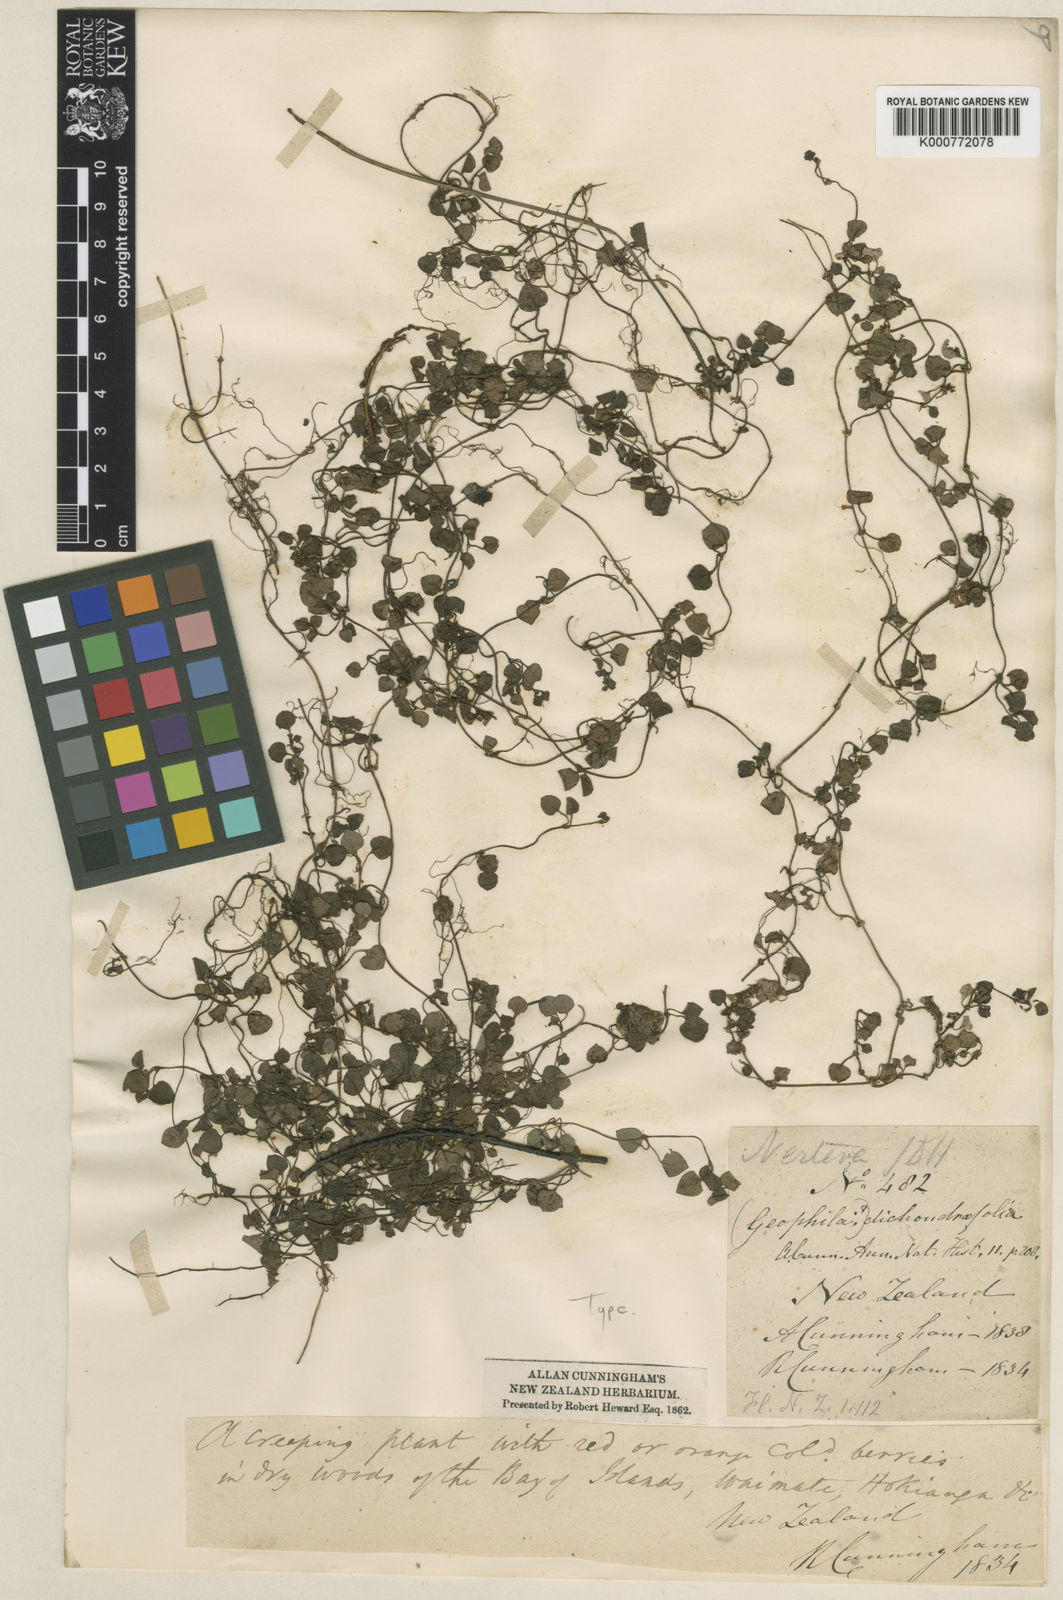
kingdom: Plantae
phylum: Tracheophyta
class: Magnoliopsida
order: Gentianales
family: Rubiaceae
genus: Nertera
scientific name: Nertera dichondrifolia
